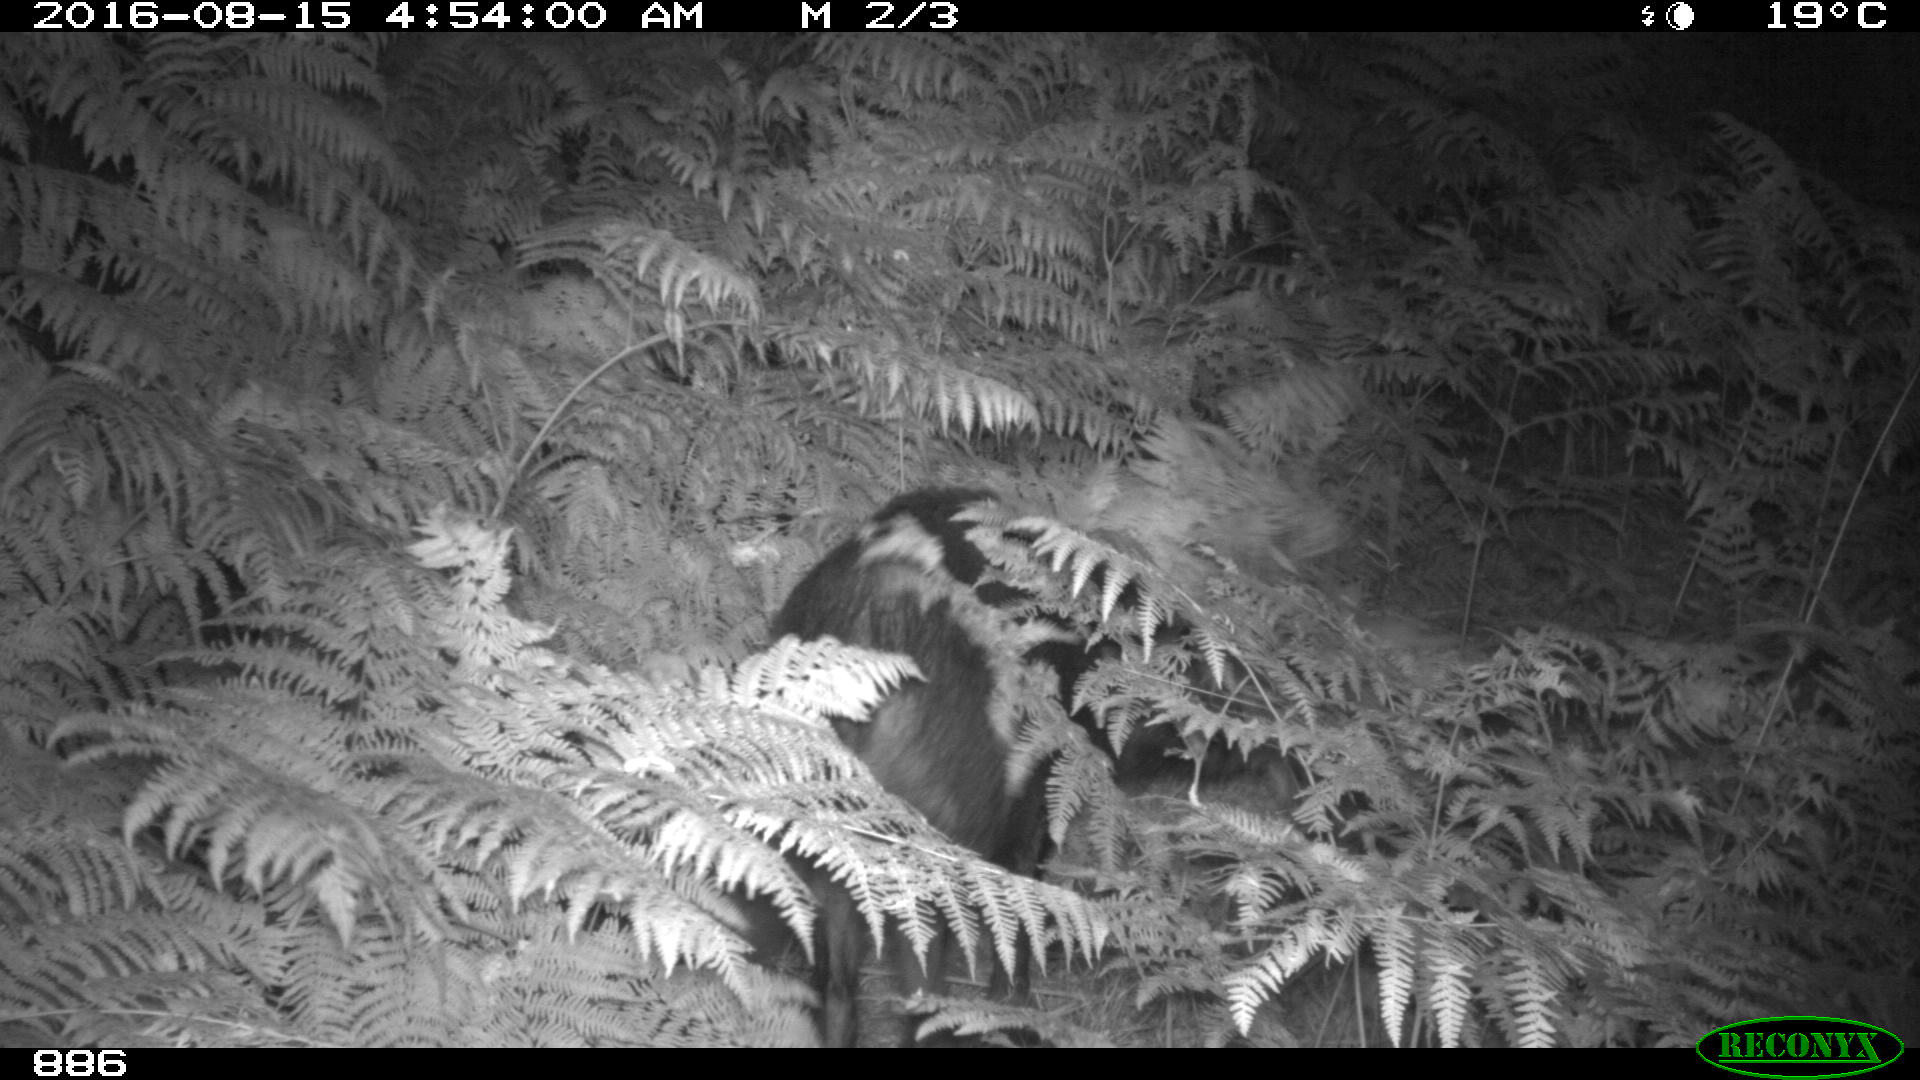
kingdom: Animalia
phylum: Chordata
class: Mammalia
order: Artiodactyla
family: Suidae
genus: Sus
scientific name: Sus scrofa
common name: Wild boar
